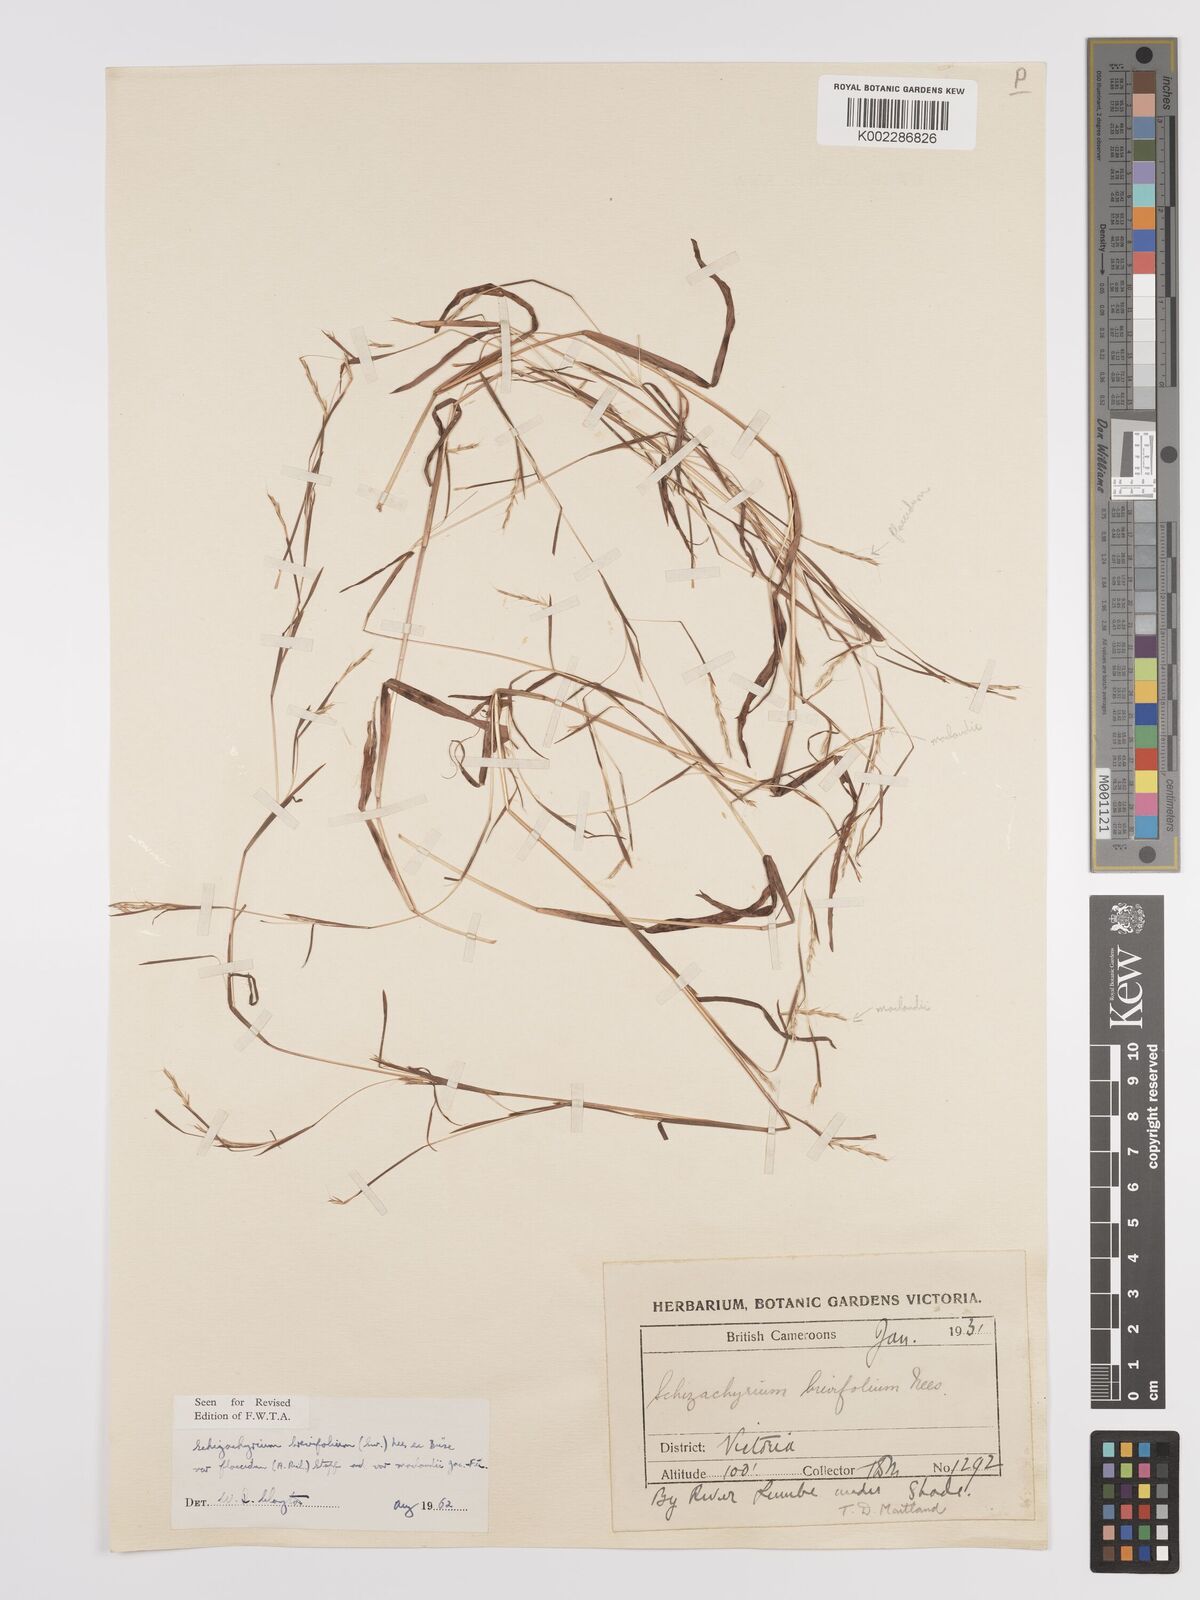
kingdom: Plantae
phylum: Tracheophyta
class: Liliopsida
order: Poales
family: Poaceae
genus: Schizachyrium
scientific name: Schizachyrium maclaudii
